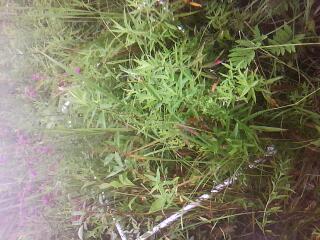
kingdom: Plantae
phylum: Tracheophyta
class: Magnoliopsida
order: Myrtales
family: Lythraceae
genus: Lythrum
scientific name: Lythrum salicaria
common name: Purple loosestrife
